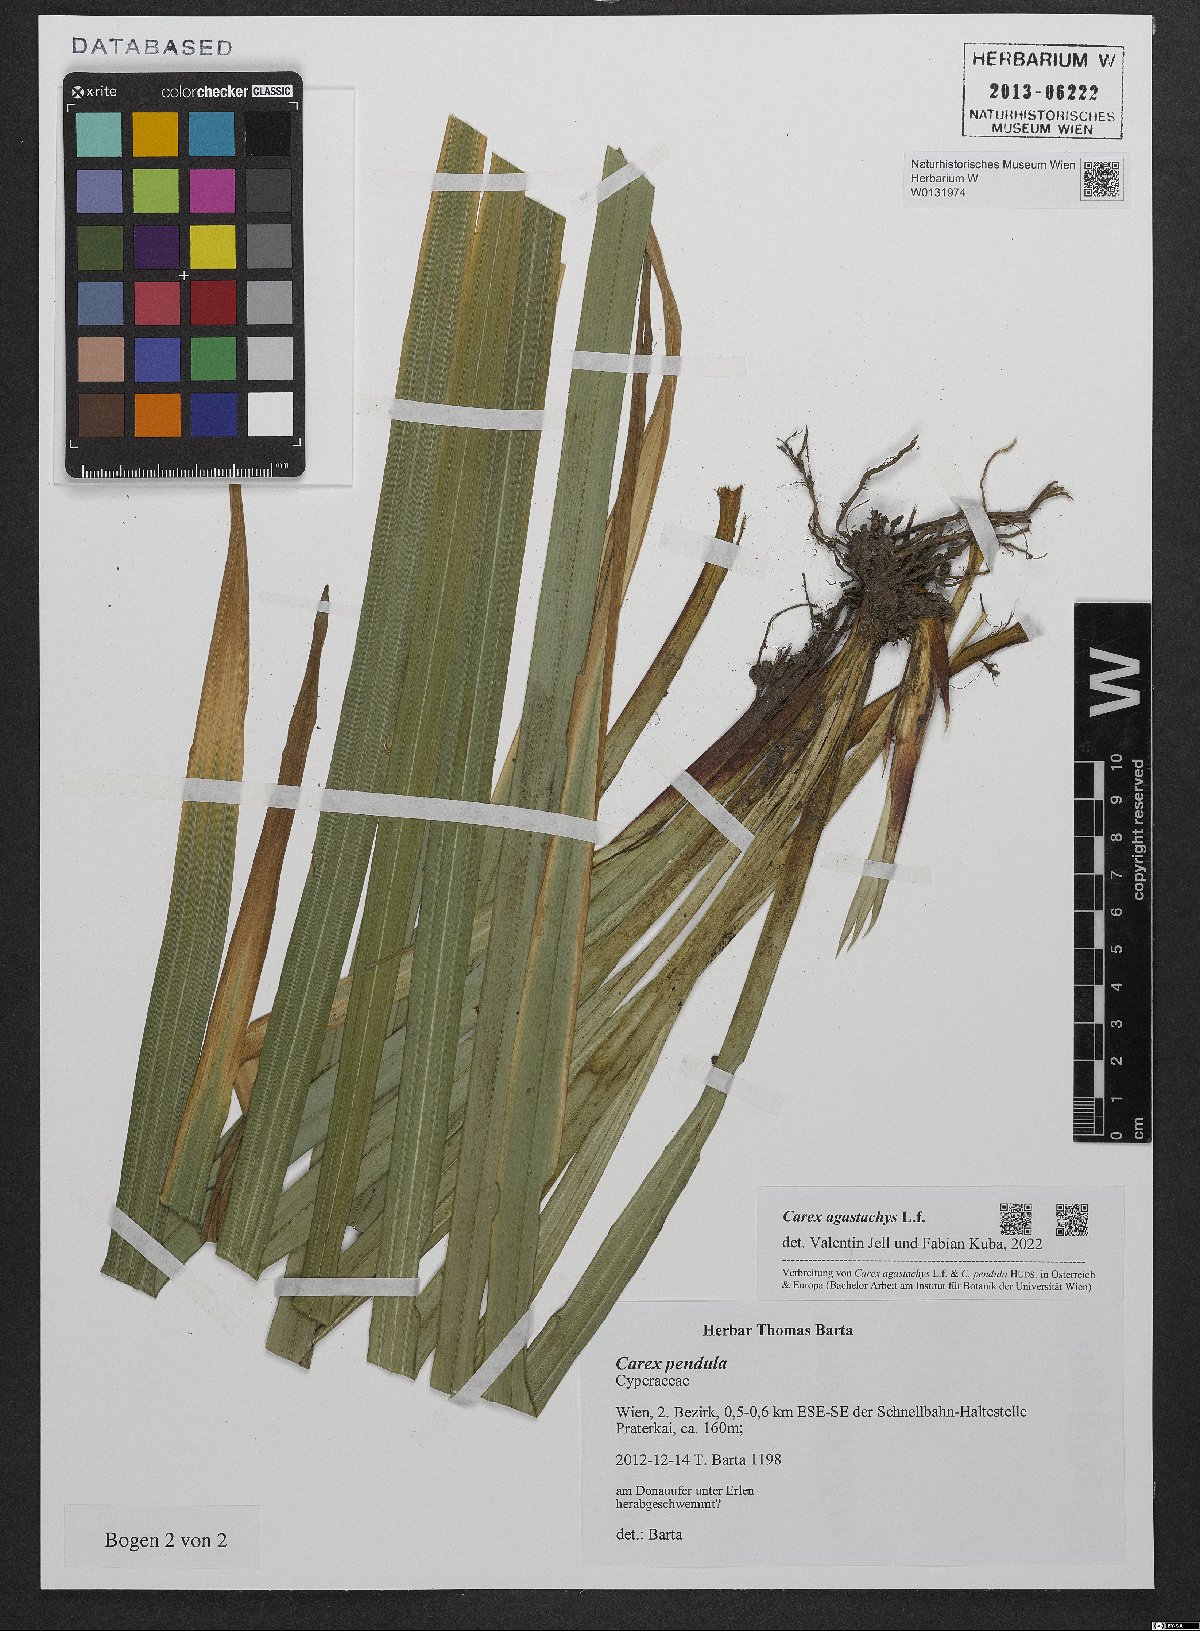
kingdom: Plantae
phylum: Tracheophyta
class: Liliopsida
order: Poales
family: Cyperaceae
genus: Carex
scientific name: Carex agastachys
